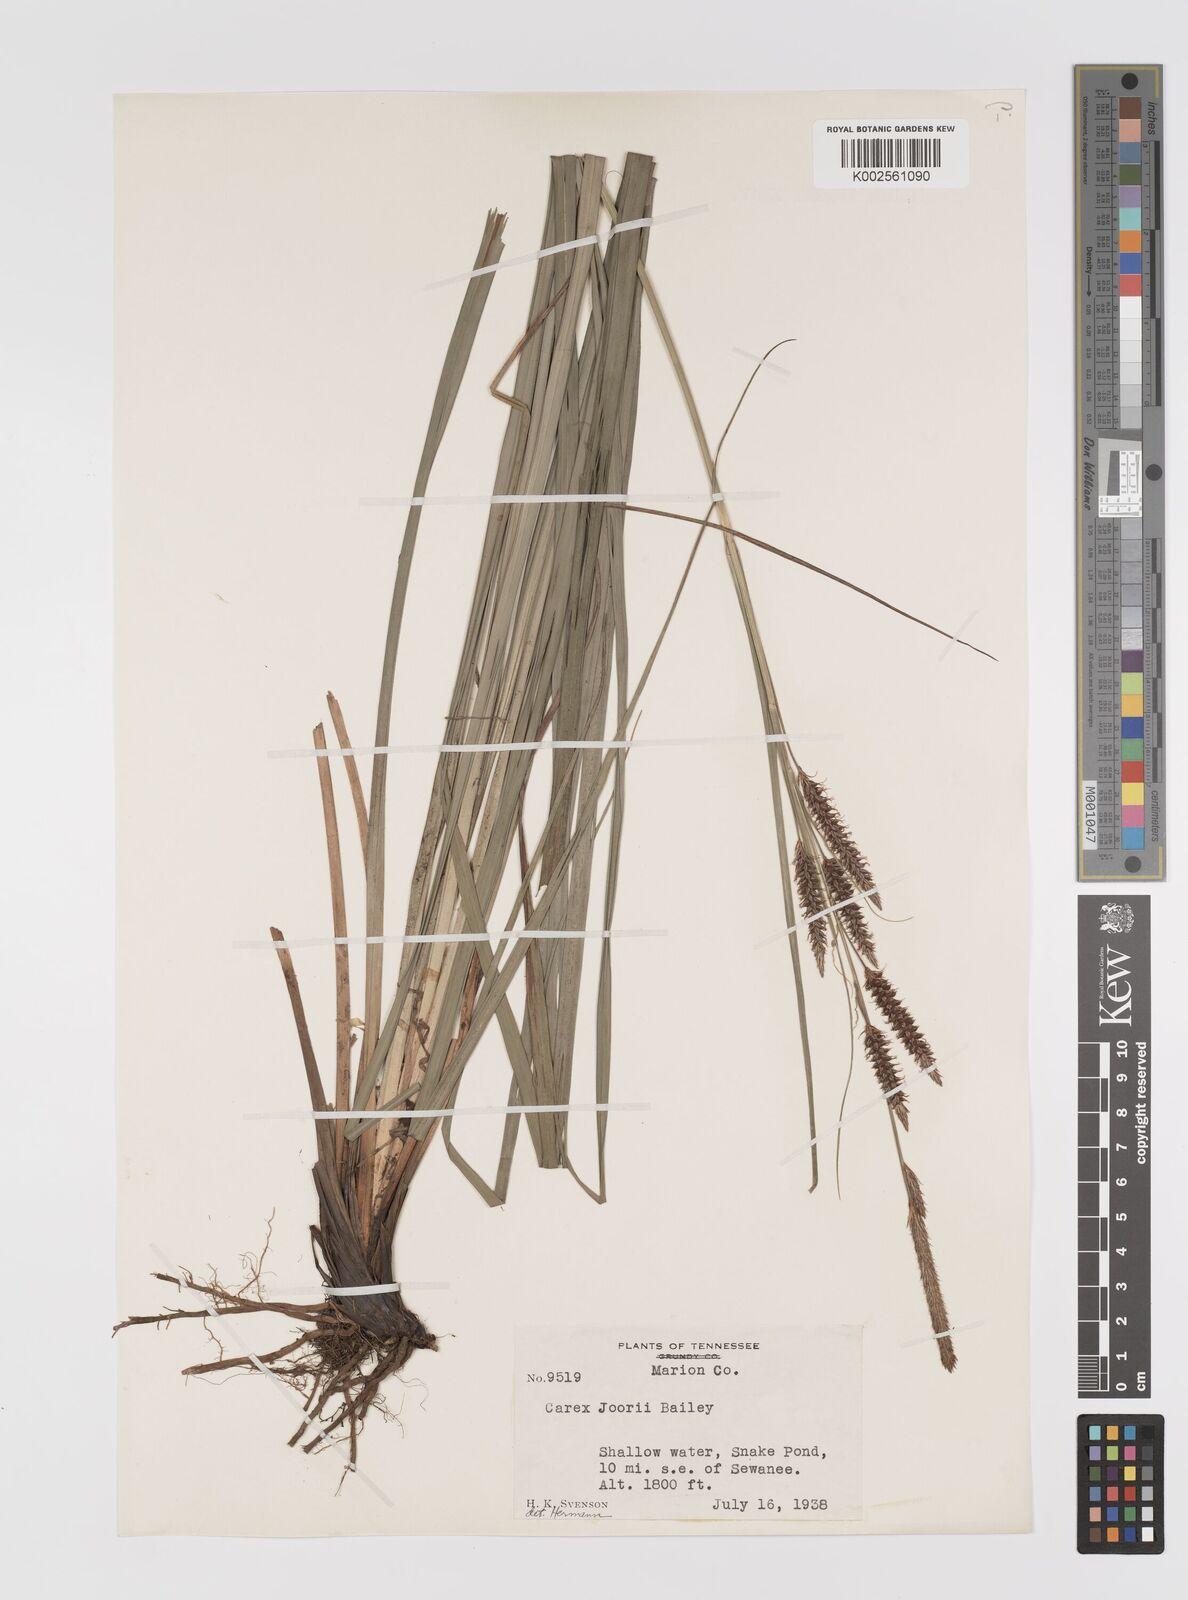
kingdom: Plantae
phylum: Tracheophyta
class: Liliopsida
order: Poales
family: Cyperaceae
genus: Carex
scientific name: Carex joorii
